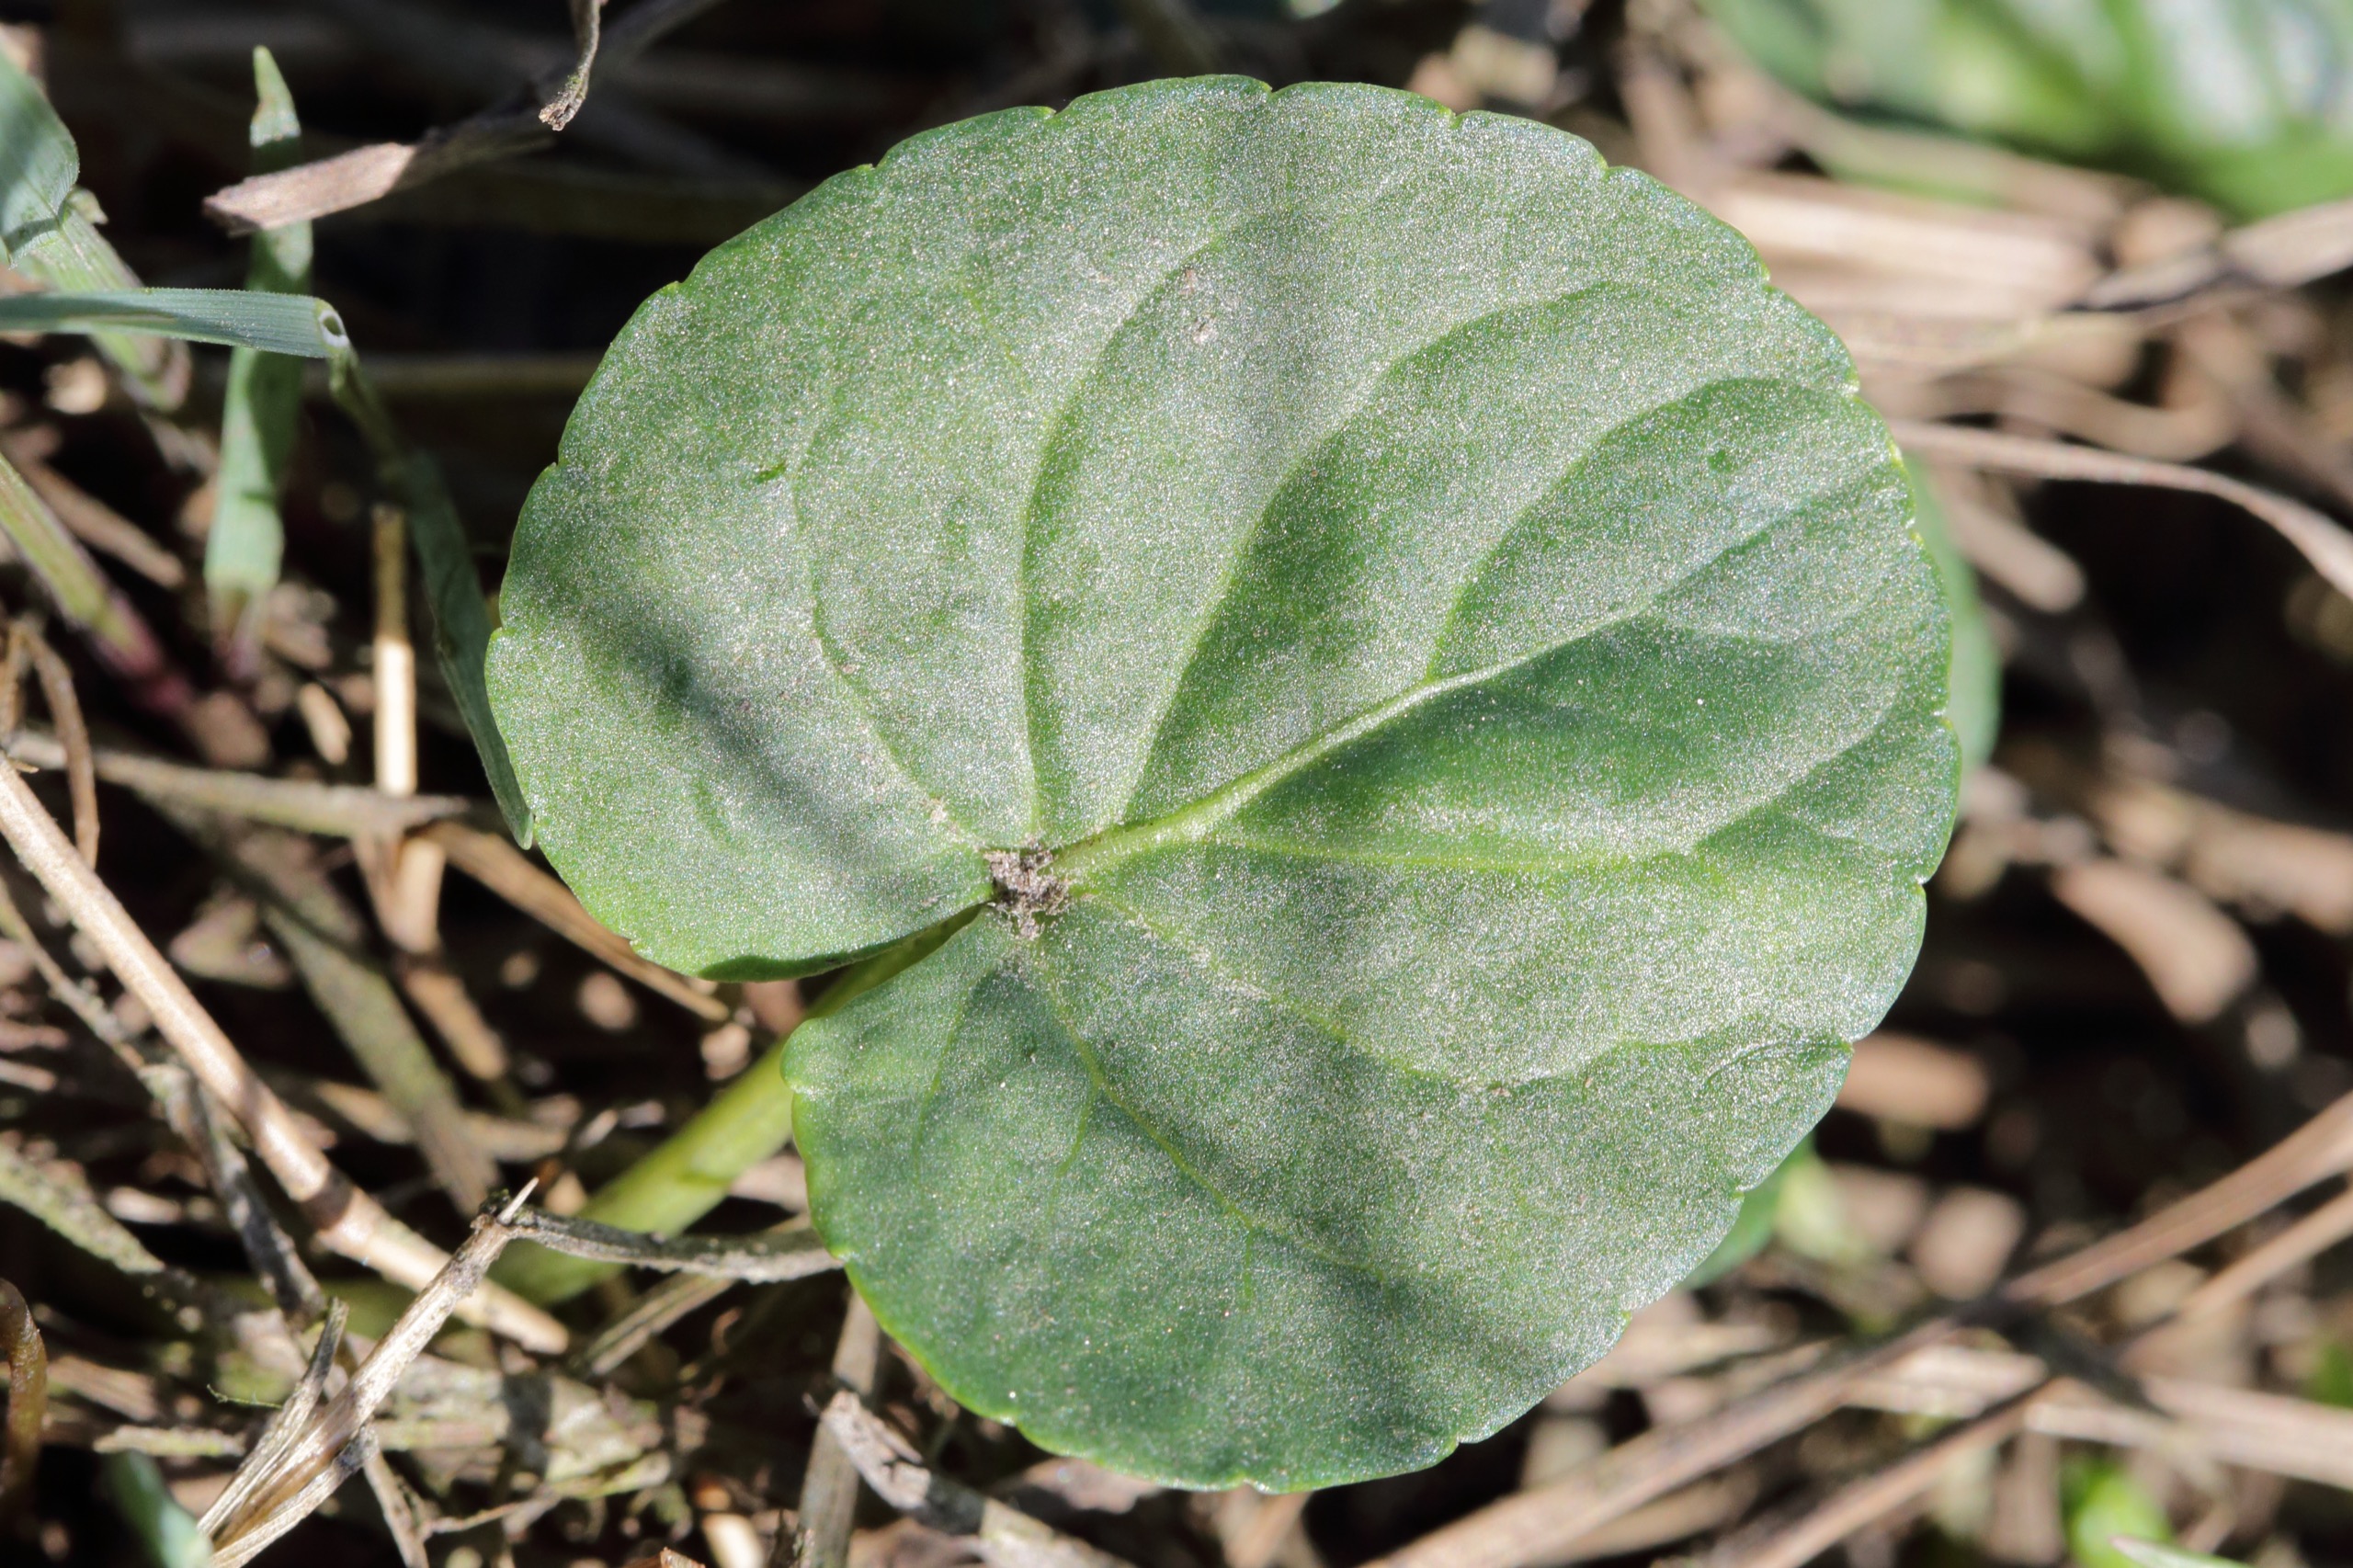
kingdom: Plantae
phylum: Tracheophyta
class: Magnoliopsida
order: Malpighiales
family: Violaceae
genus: Viola
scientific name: Viola palustris
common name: Eng-viol
